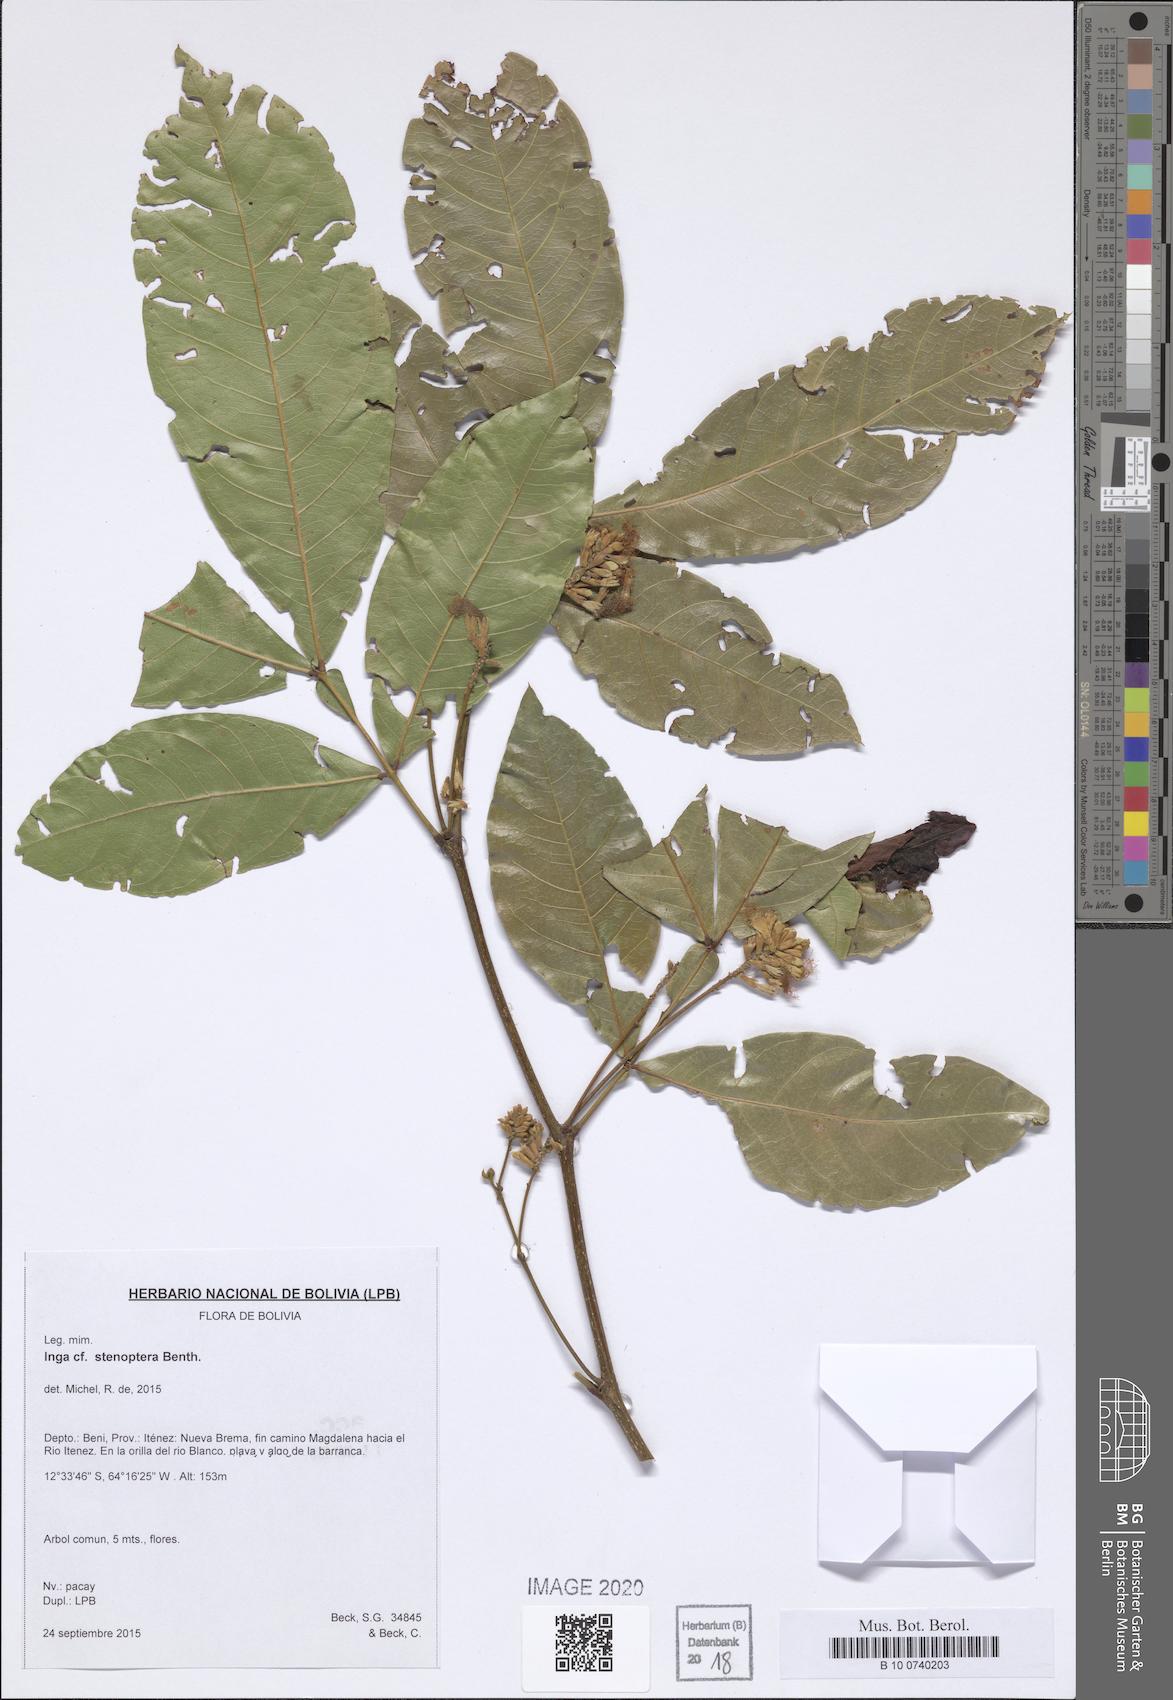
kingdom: Plantae
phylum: Tracheophyta
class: Magnoliopsida
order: Fabales
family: Fabaceae
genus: Inga
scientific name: Inga stenoptera
